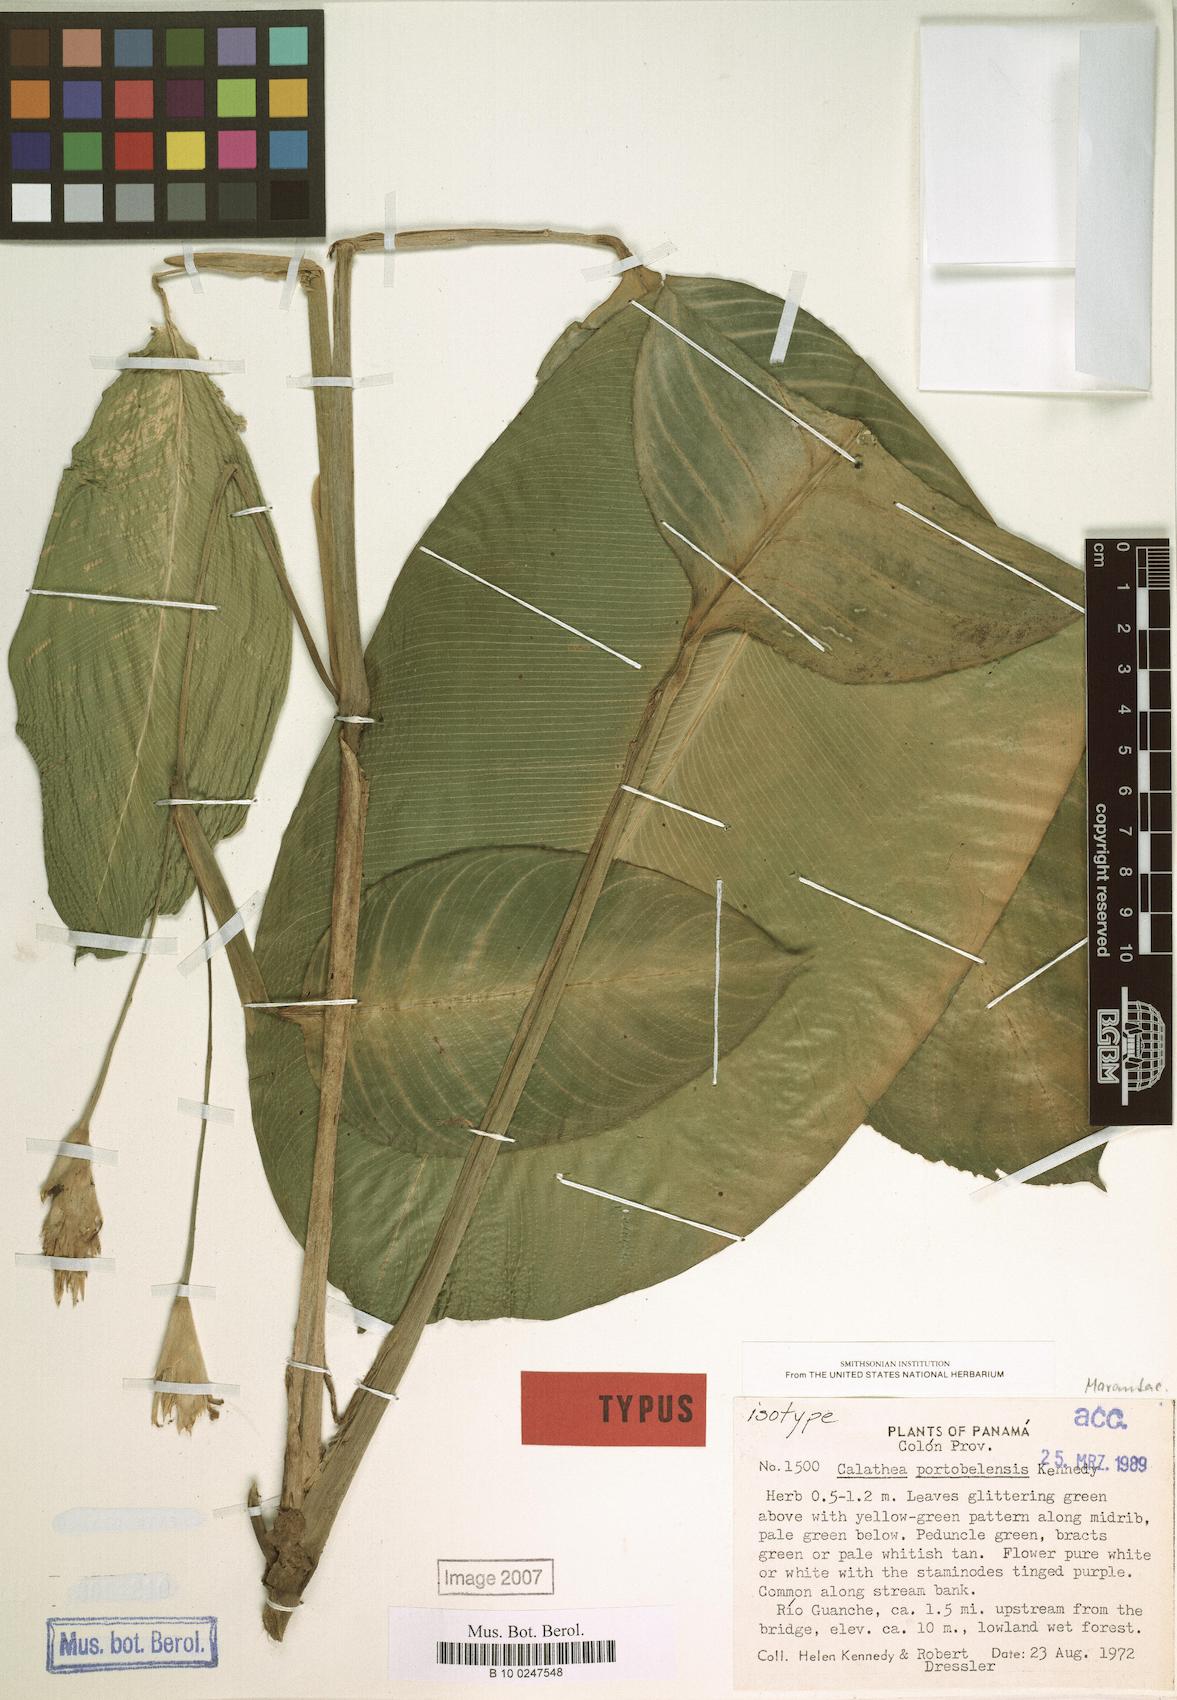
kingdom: Plantae
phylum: Tracheophyta
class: Liliopsida
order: Zingiberales
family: Marantaceae
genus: Goeppertia
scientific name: Goeppertia portobelensis
